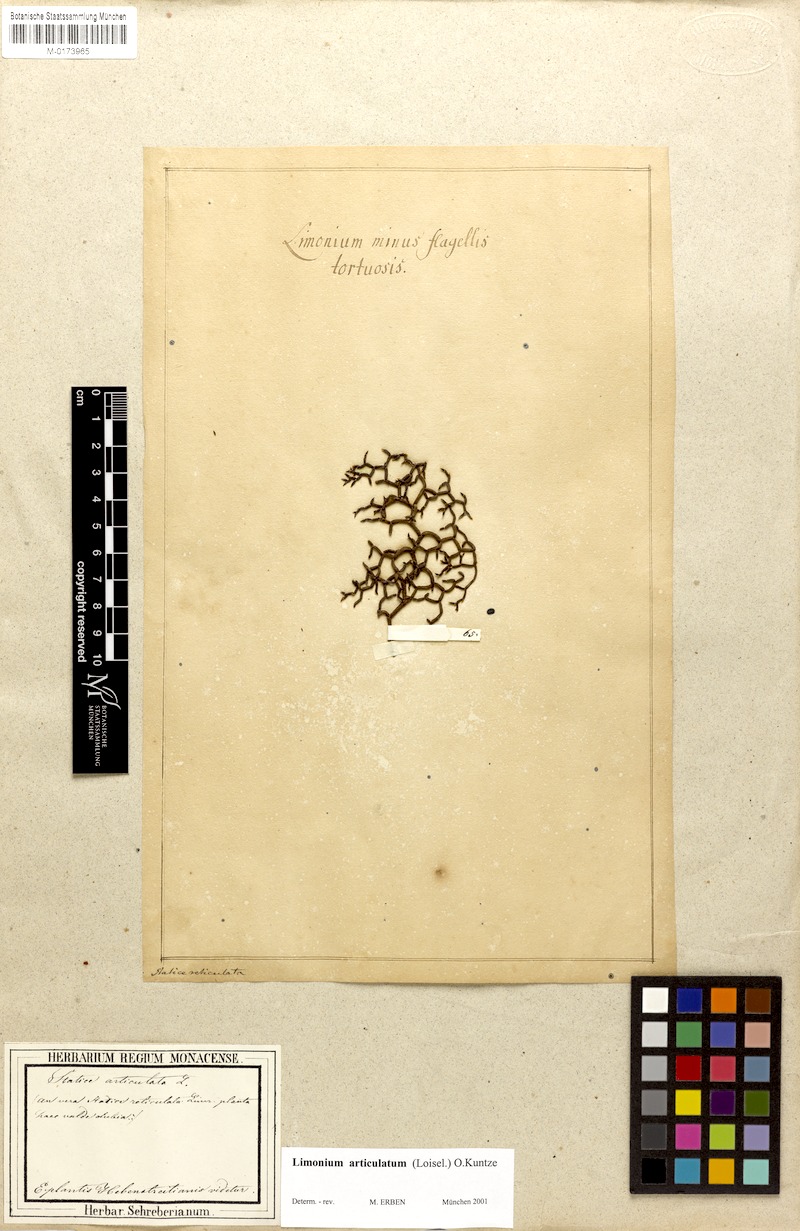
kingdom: Plantae
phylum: Tracheophyta
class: Magnoliopsida
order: Caryophyllales
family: Plumbaginaceae
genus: Limonium
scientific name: Limonium articulatum
